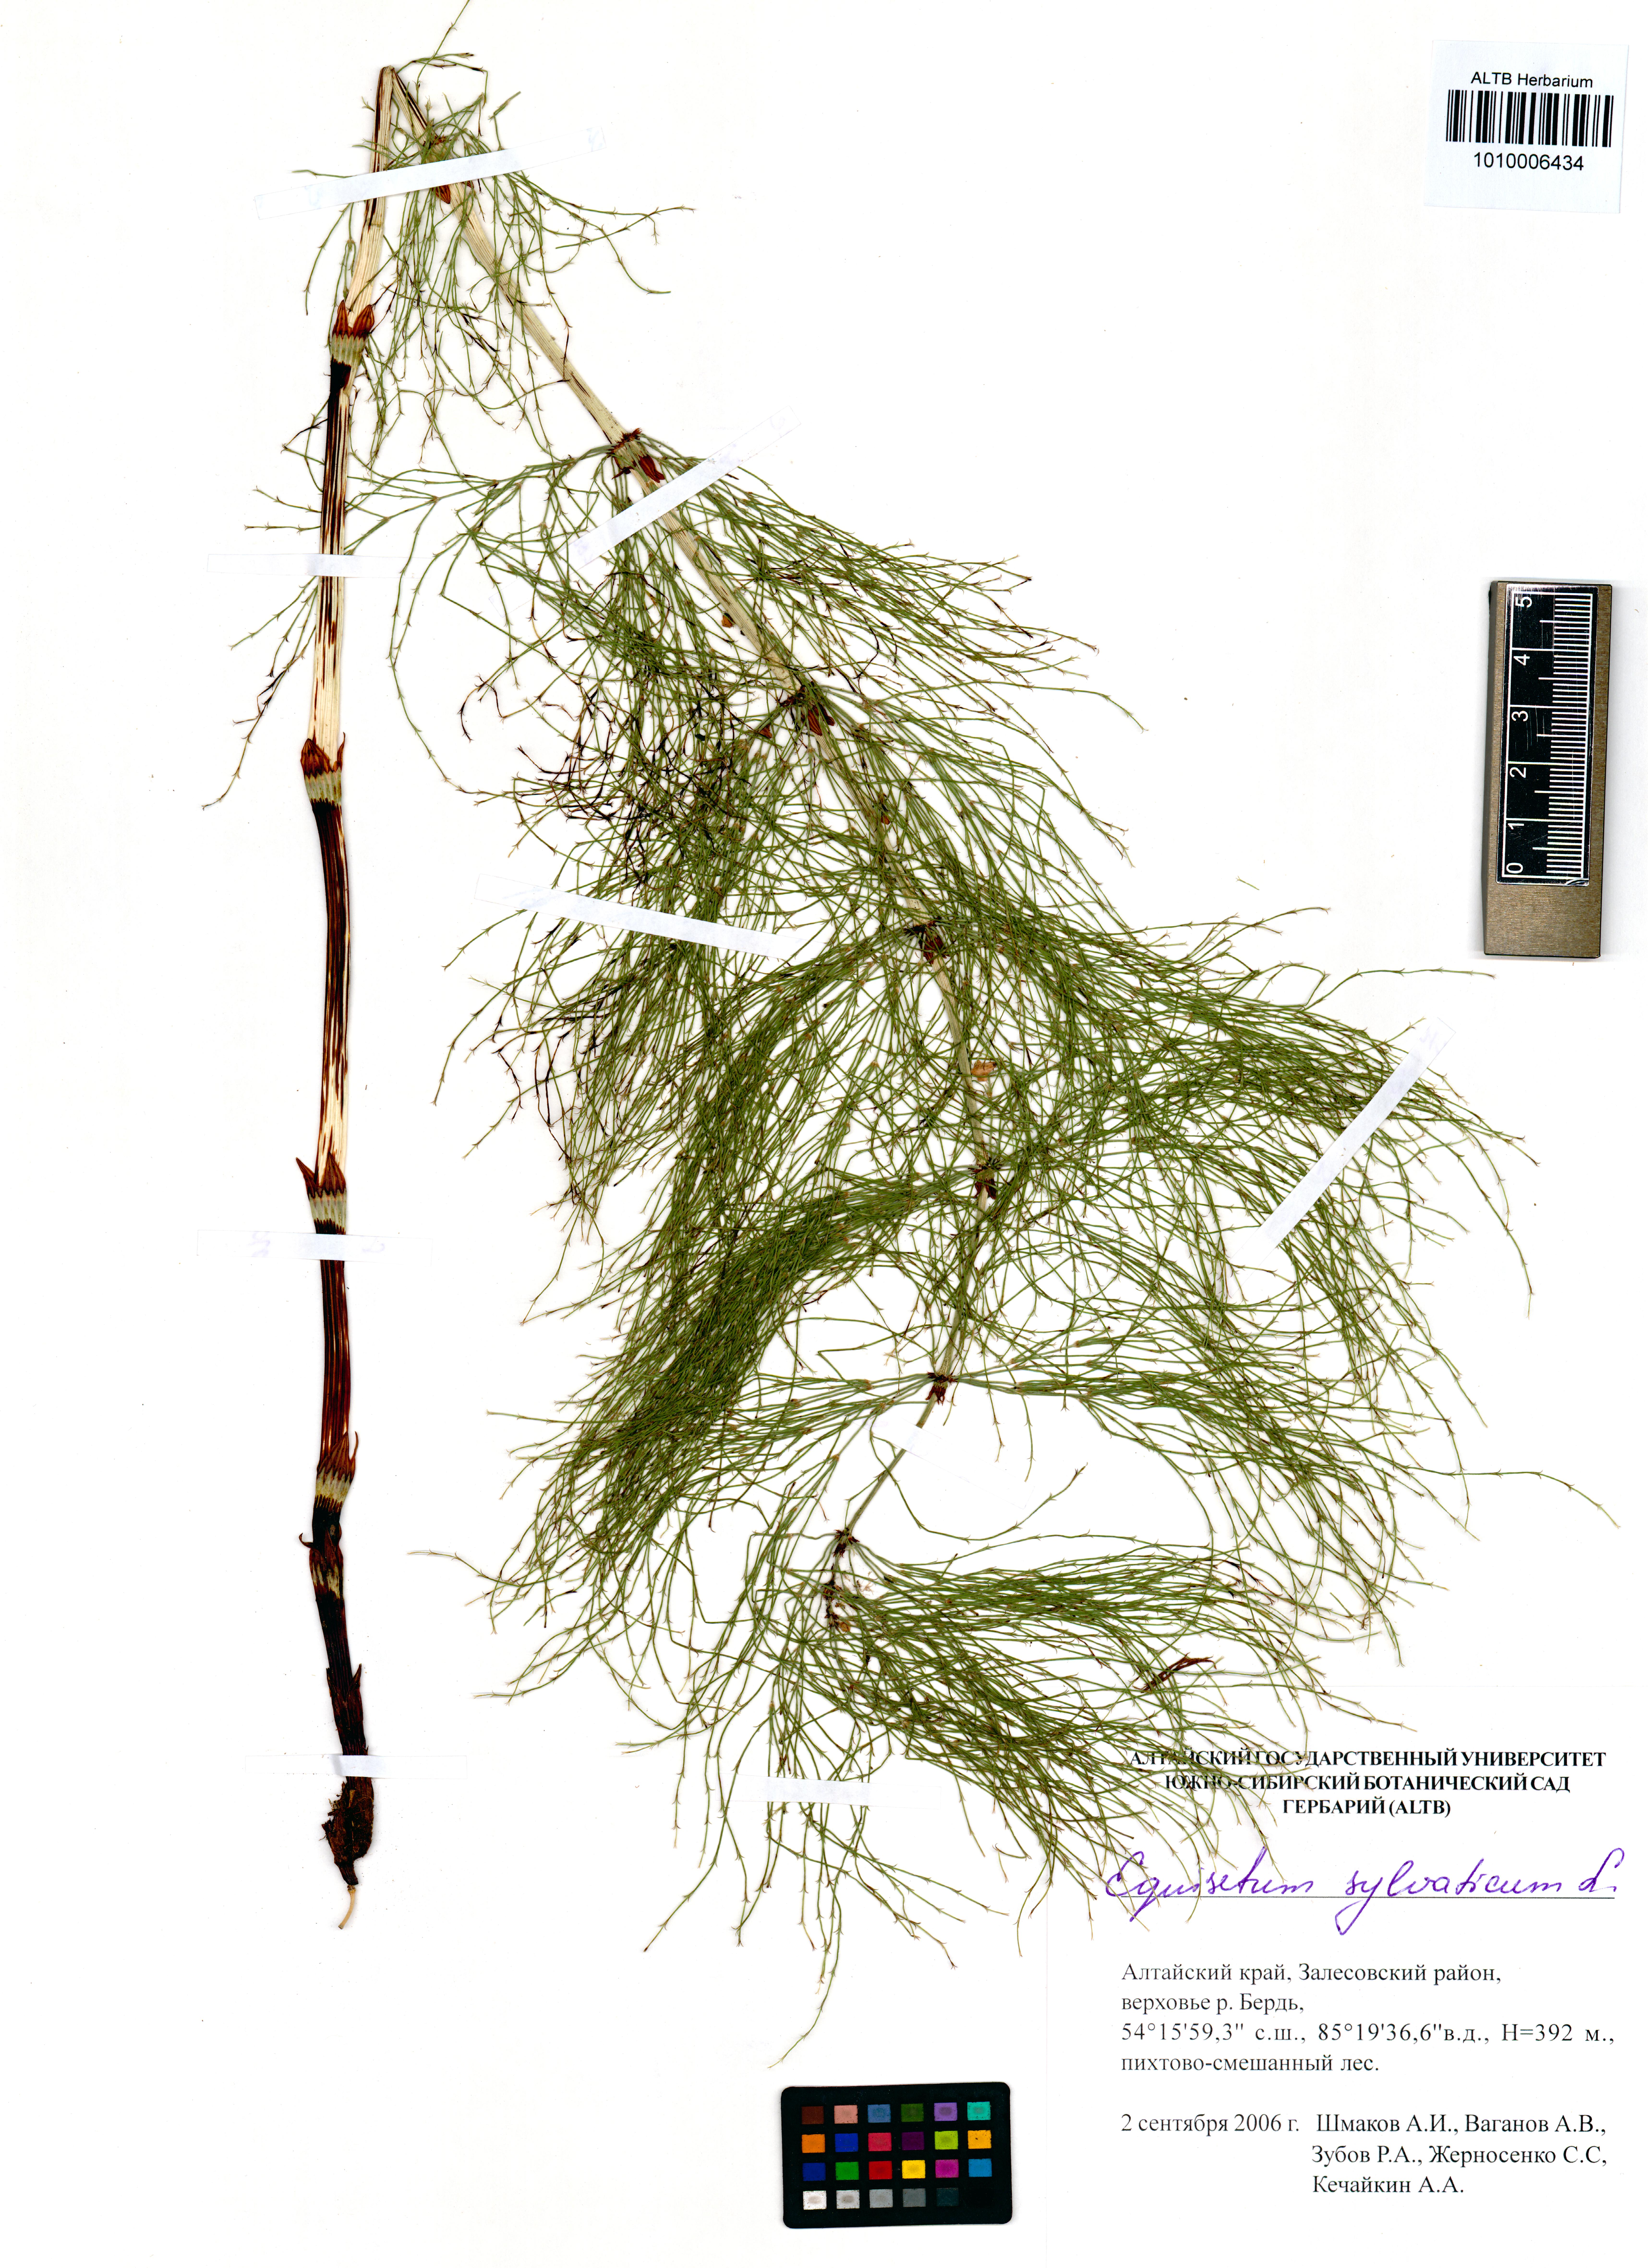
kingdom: Plantae
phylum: Tracheophyta
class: Polypodiopsida
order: Equisetales
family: Equisetaceae
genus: Equisetum
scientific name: Equisetum sylvaticum
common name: Wood horsetail
